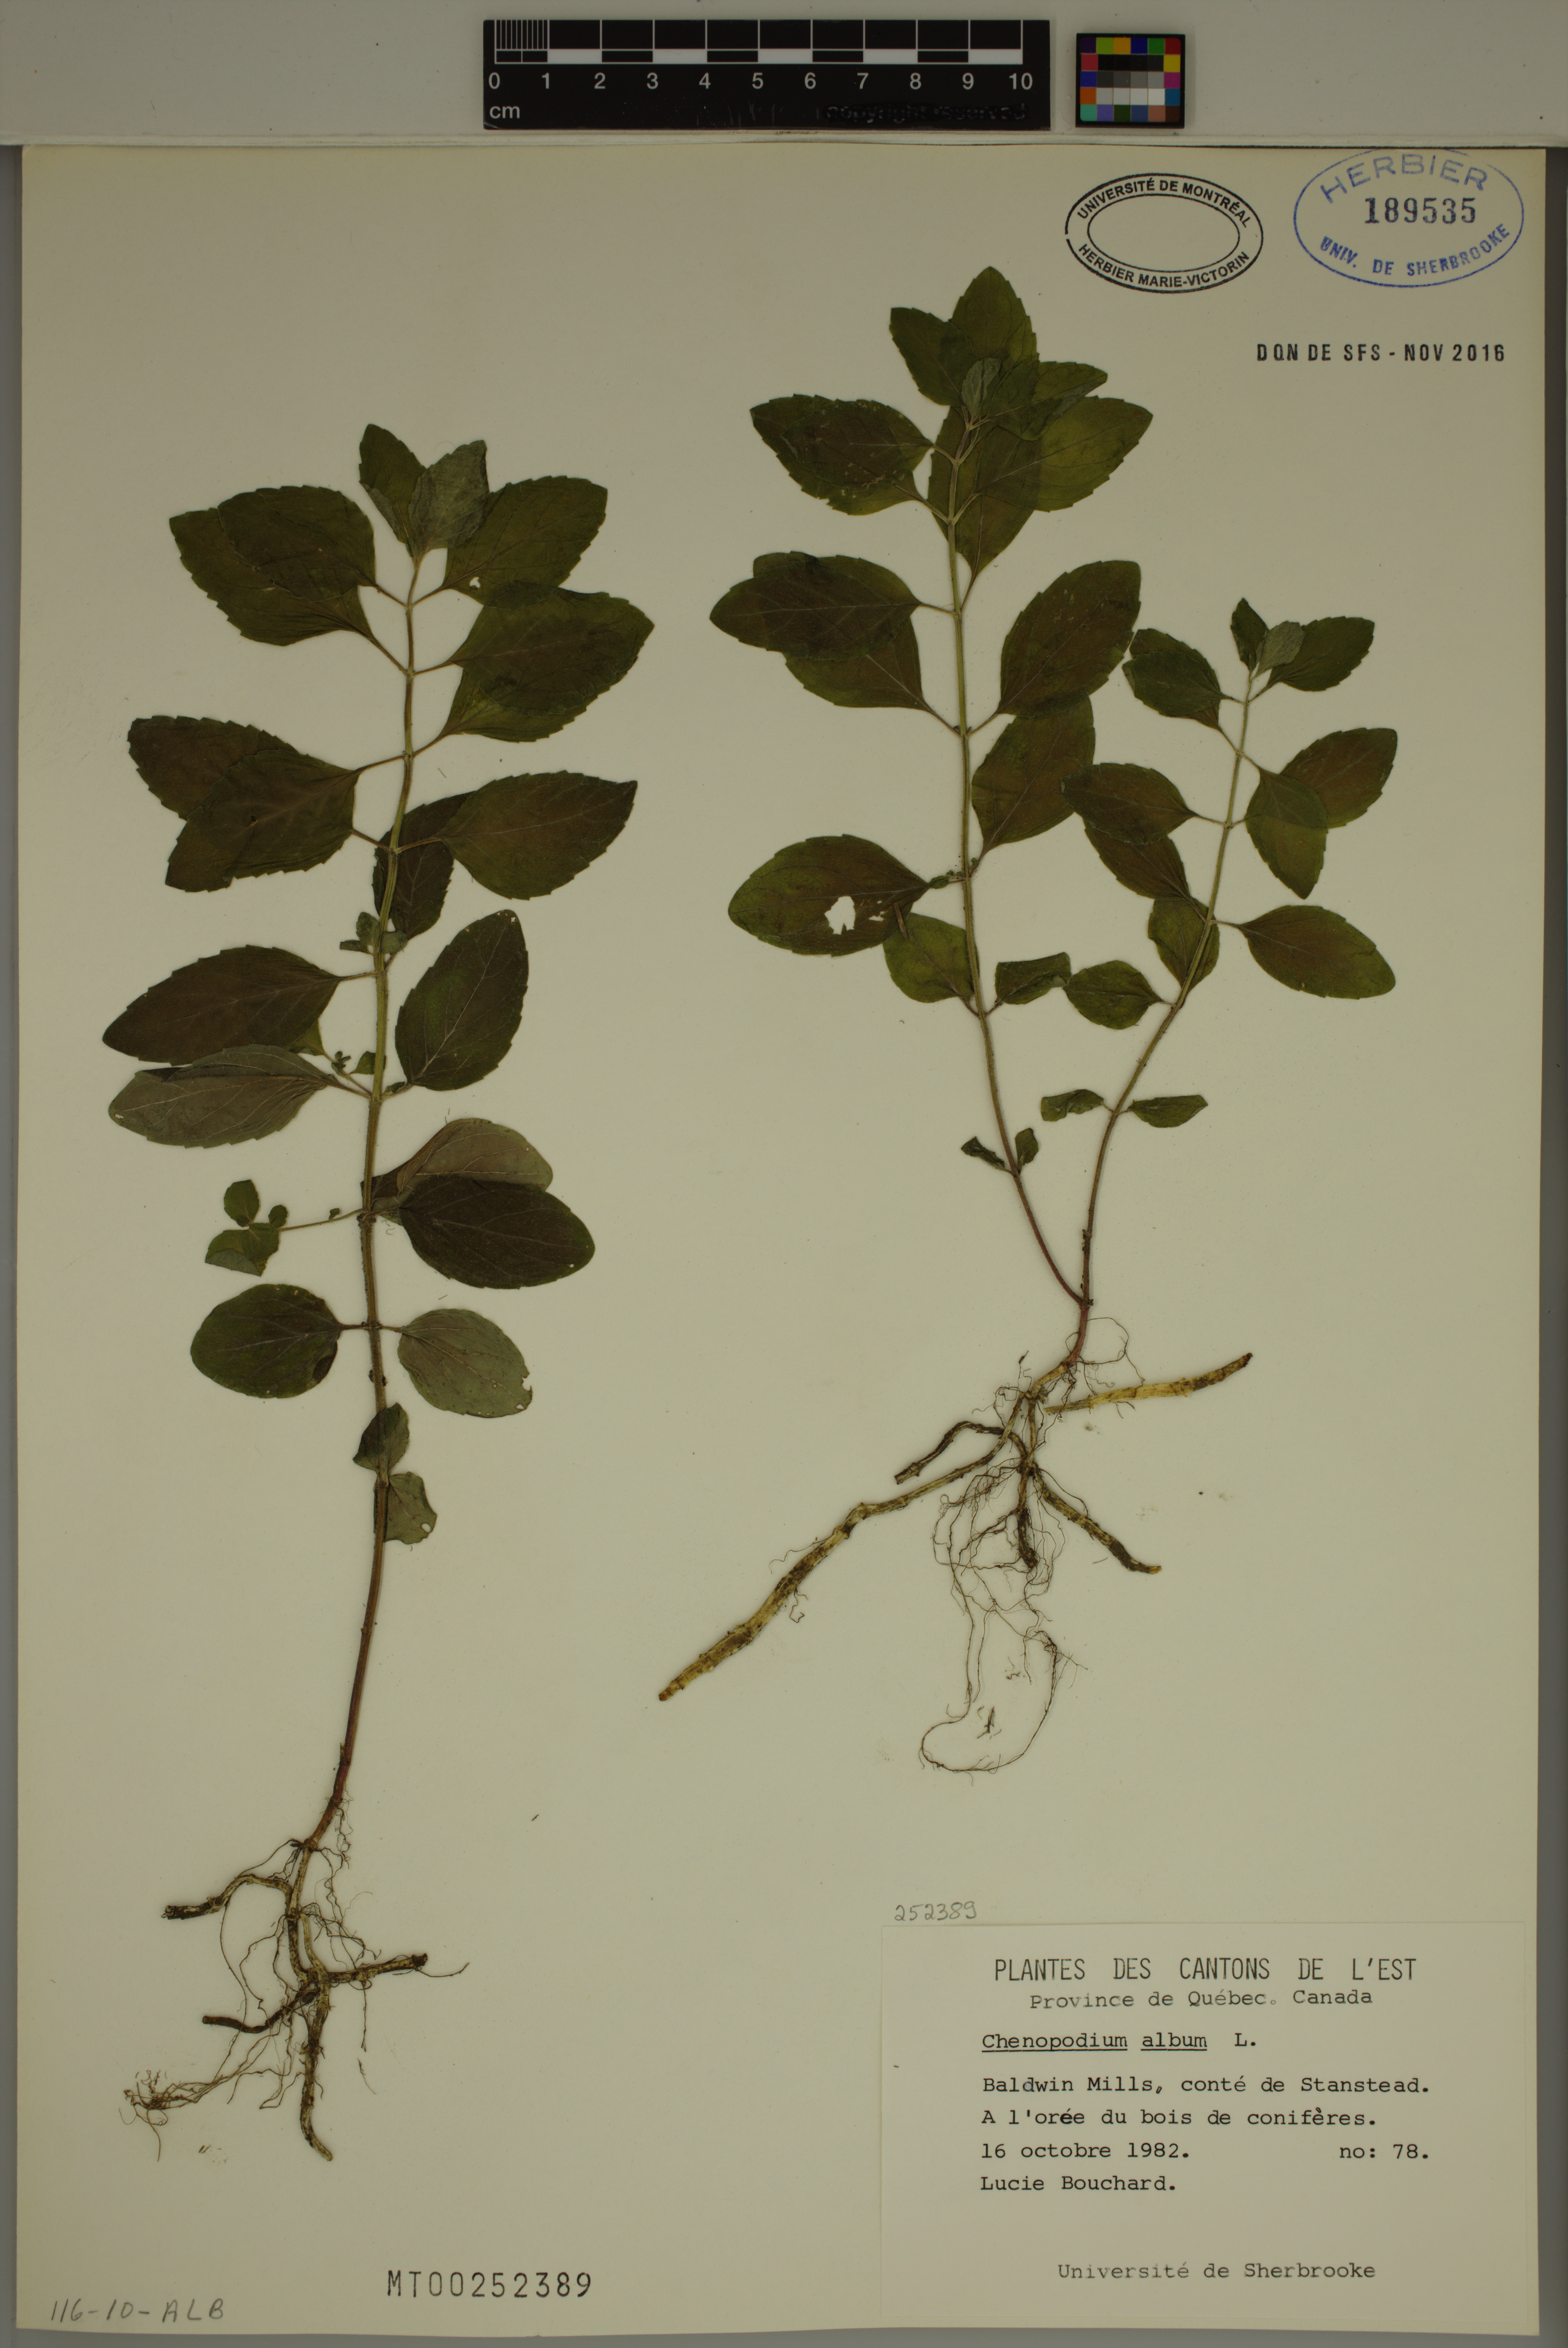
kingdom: Plantae
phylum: Tracheophyta
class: Magnoliopsida
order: Caryophyllales
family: Amaranthaceae
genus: Chenopodium
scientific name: Chenopodium album
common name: Fat-hen
